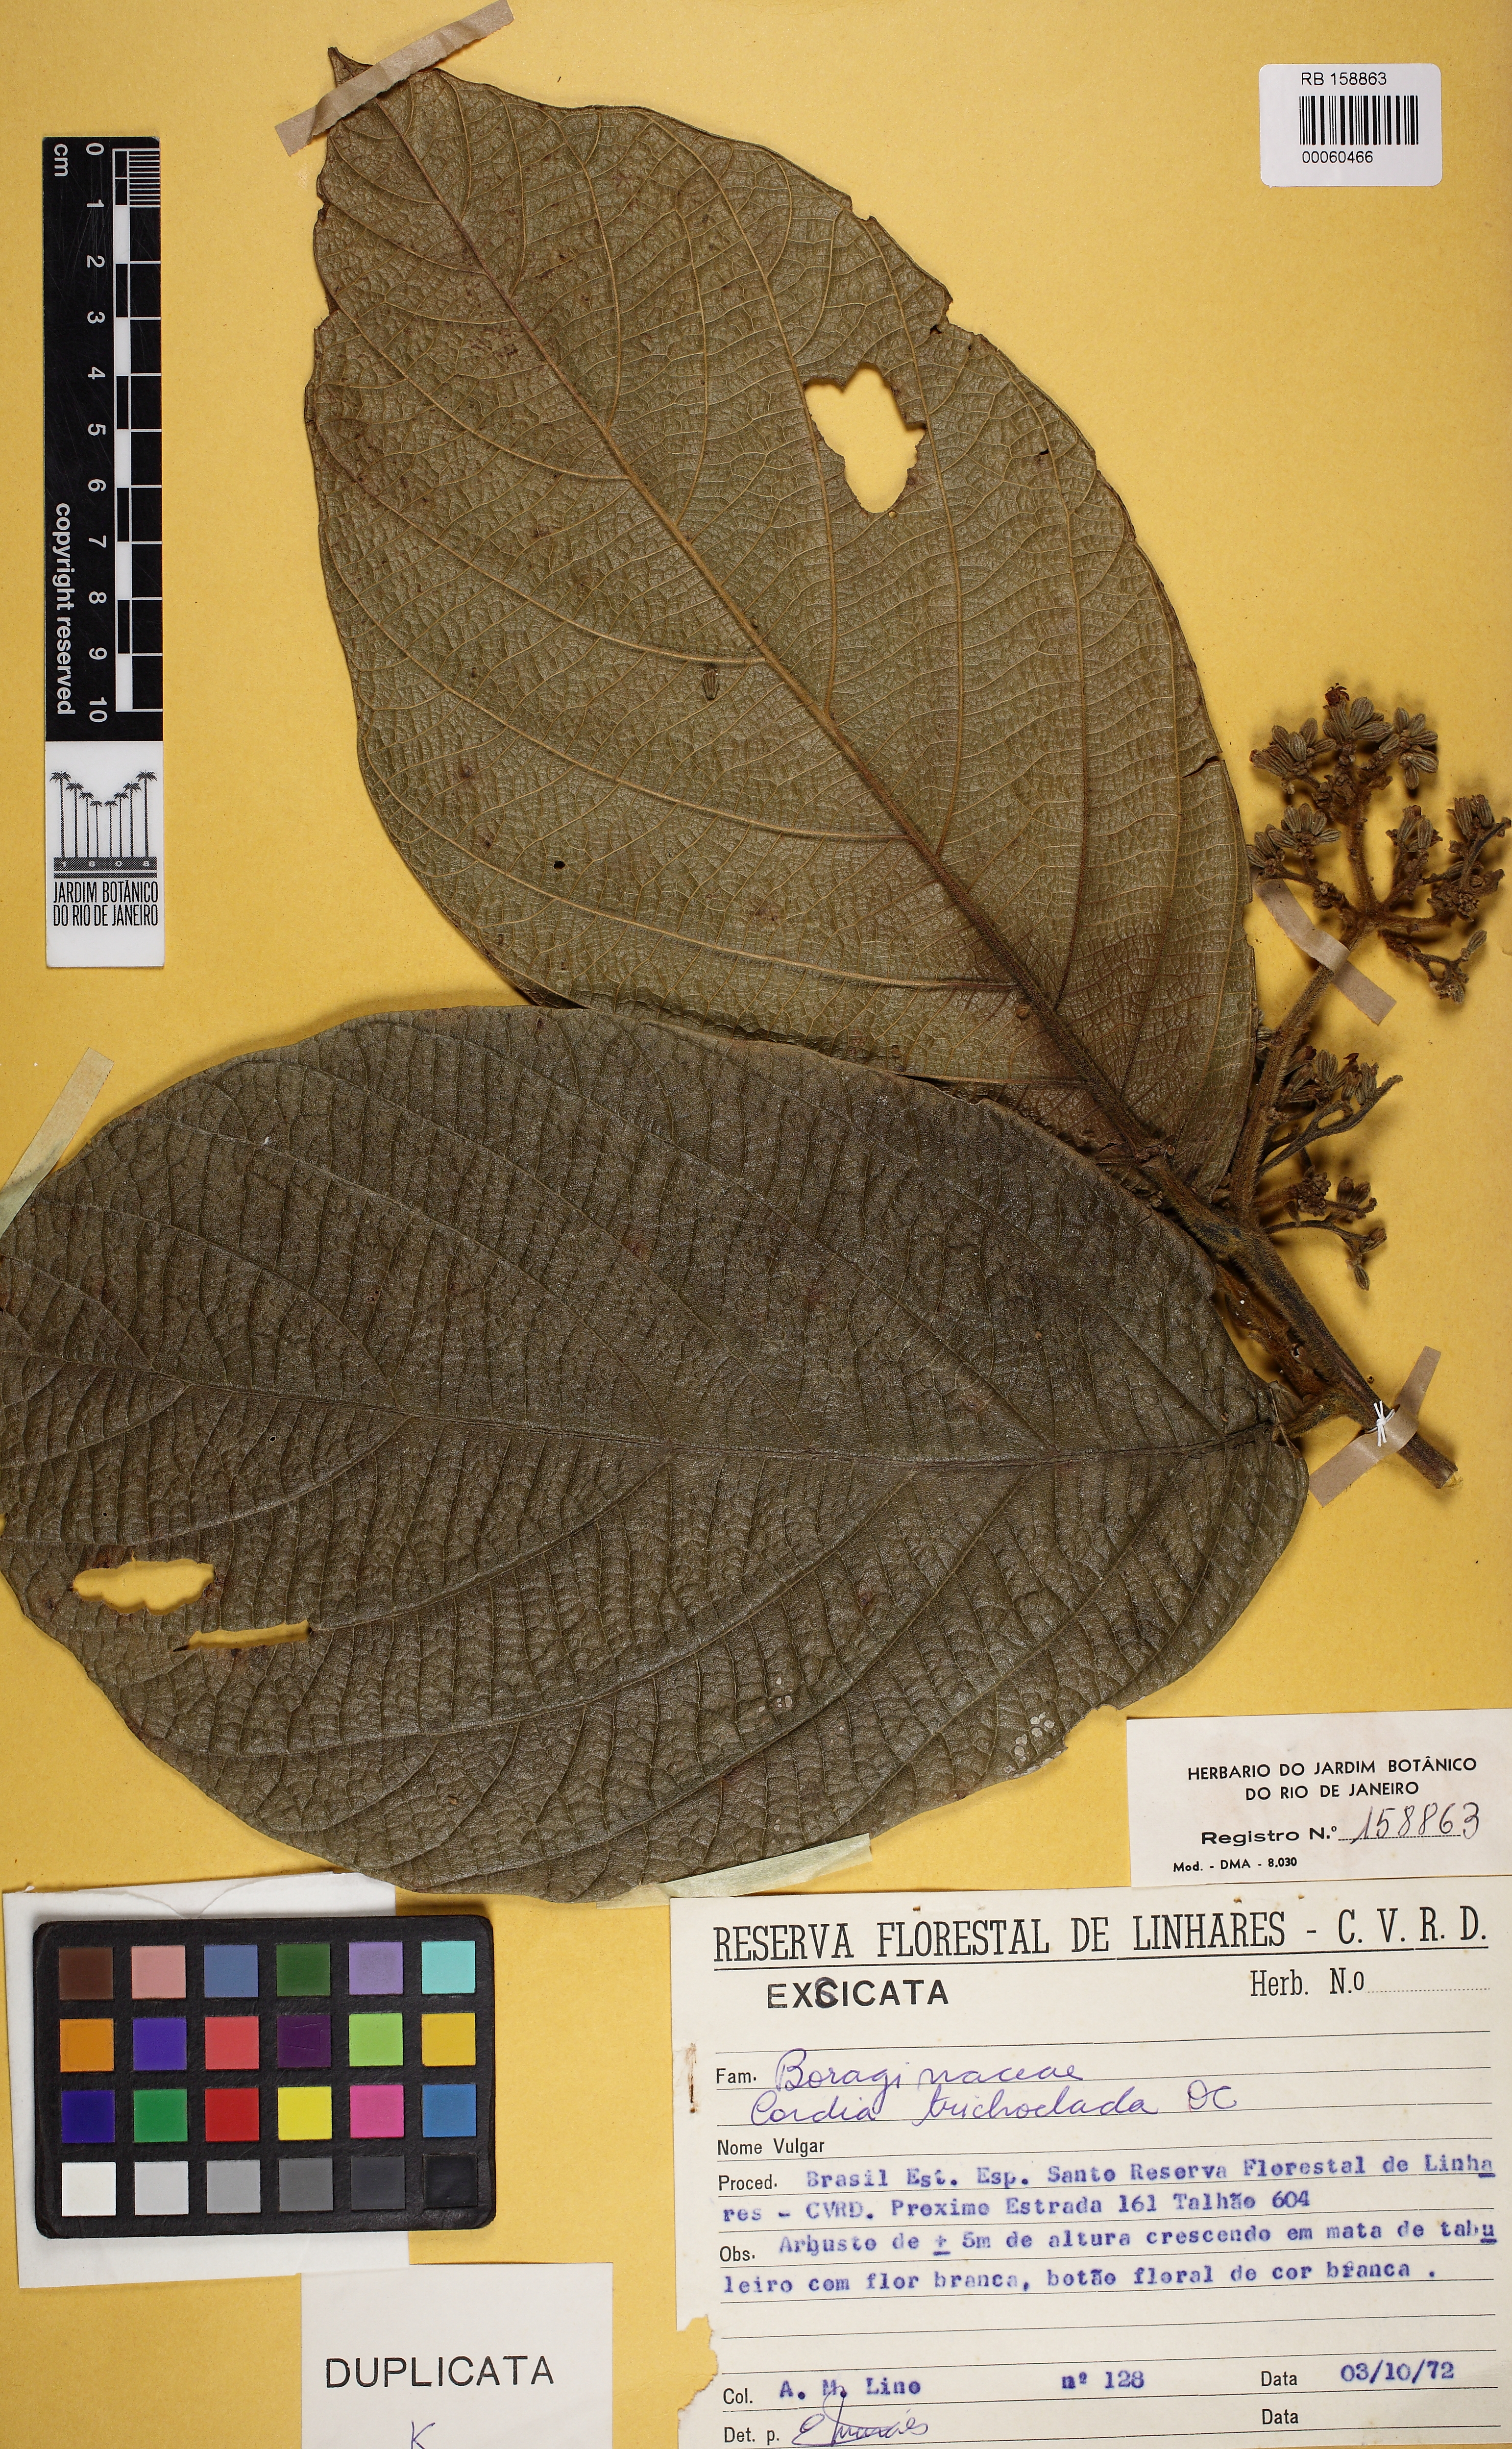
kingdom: Plantae
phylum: Tracheophyta
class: Magnoliopsida
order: Boraginales
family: Cordiaceae
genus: Cordia
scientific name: Cordia trichoclada
